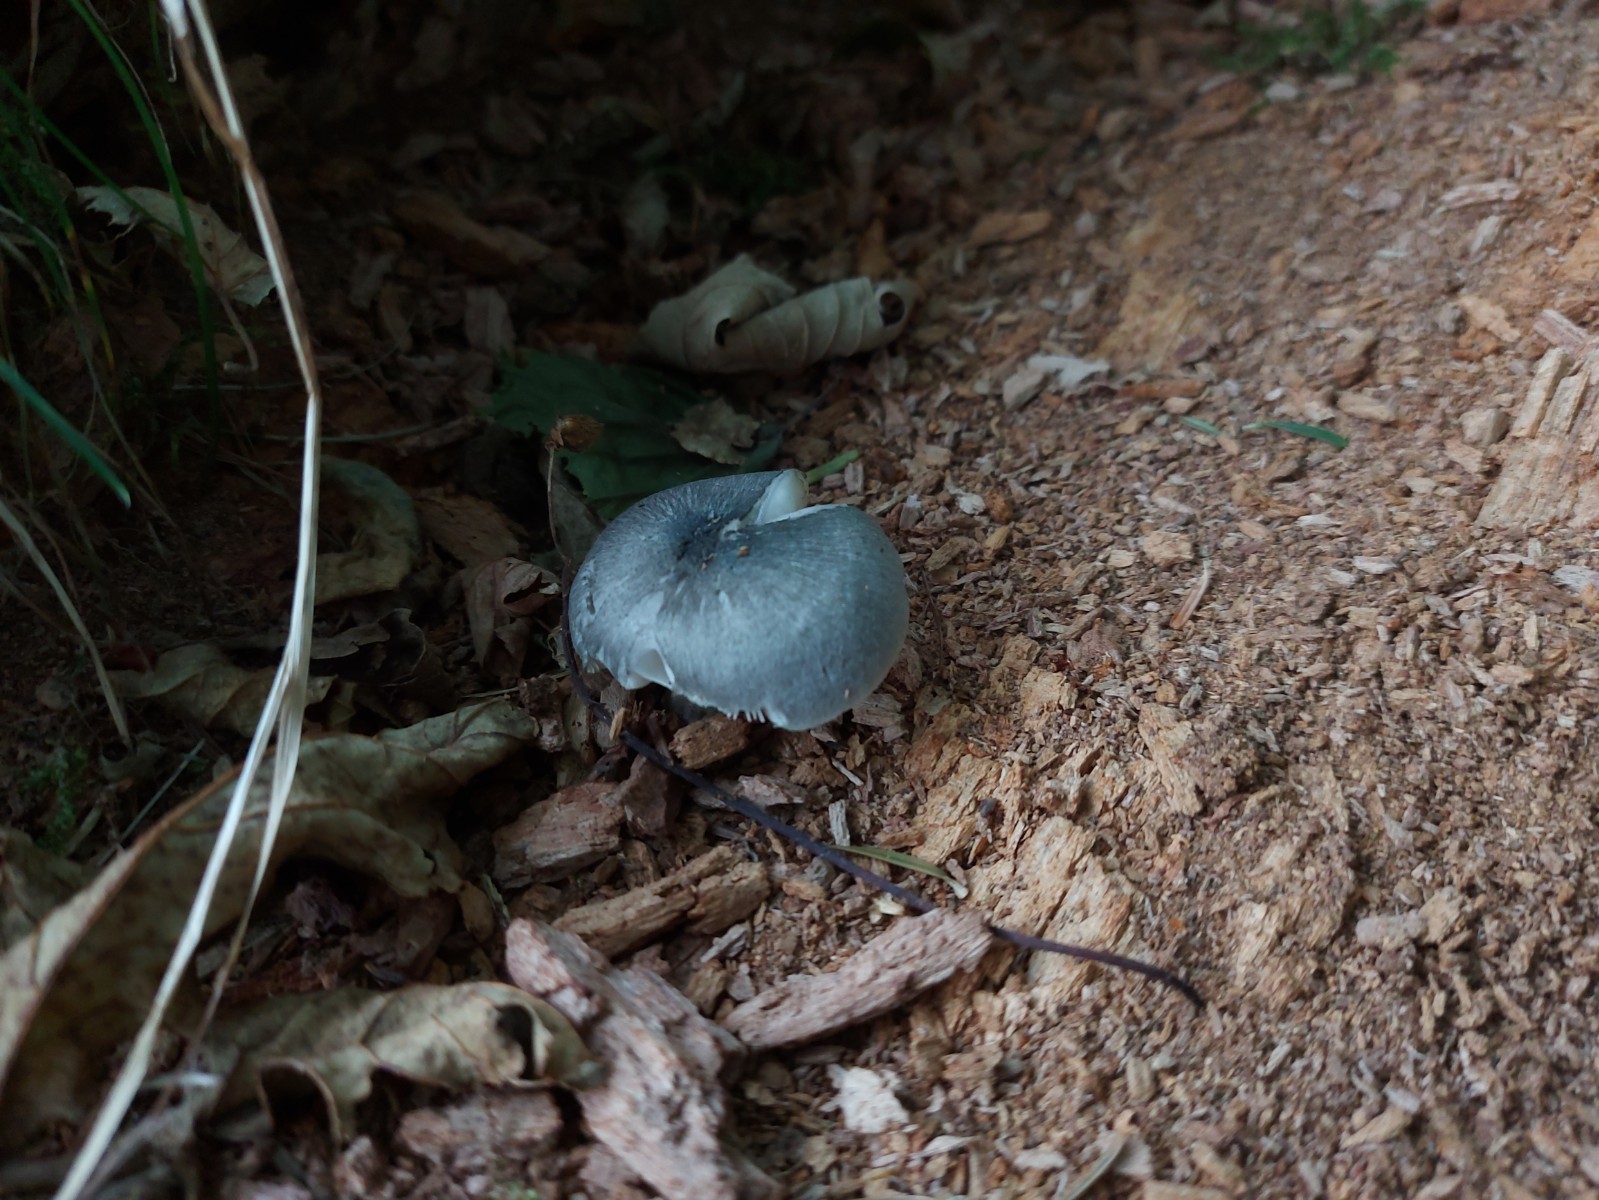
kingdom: Fungi
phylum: Basidiomycota
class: Agaricomycetes
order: Agaricales
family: Pluteaceae
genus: Pluteus
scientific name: Pluteus salicinus
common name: stiv skærmhat
